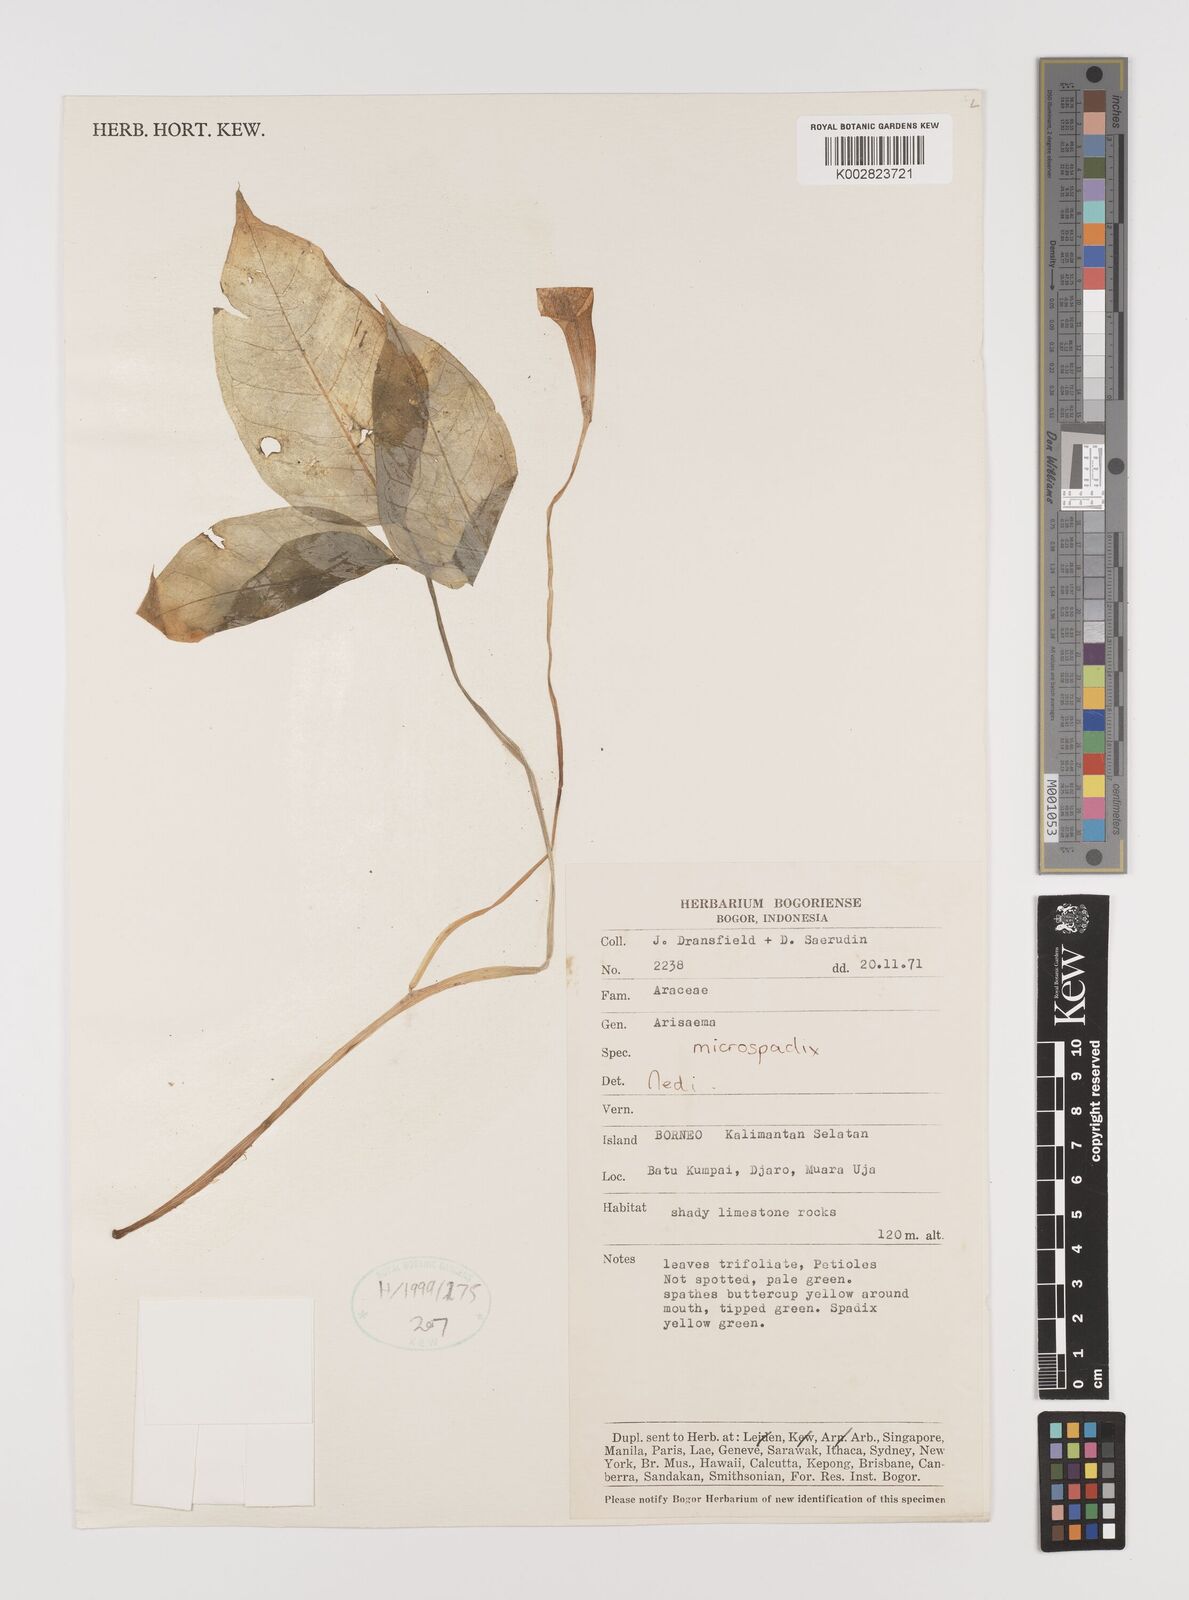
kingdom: Plantae
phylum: Tracheophyta
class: Liliopsida
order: Alismatales
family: Araceae
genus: Arisaema
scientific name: Arisaema microspadix
